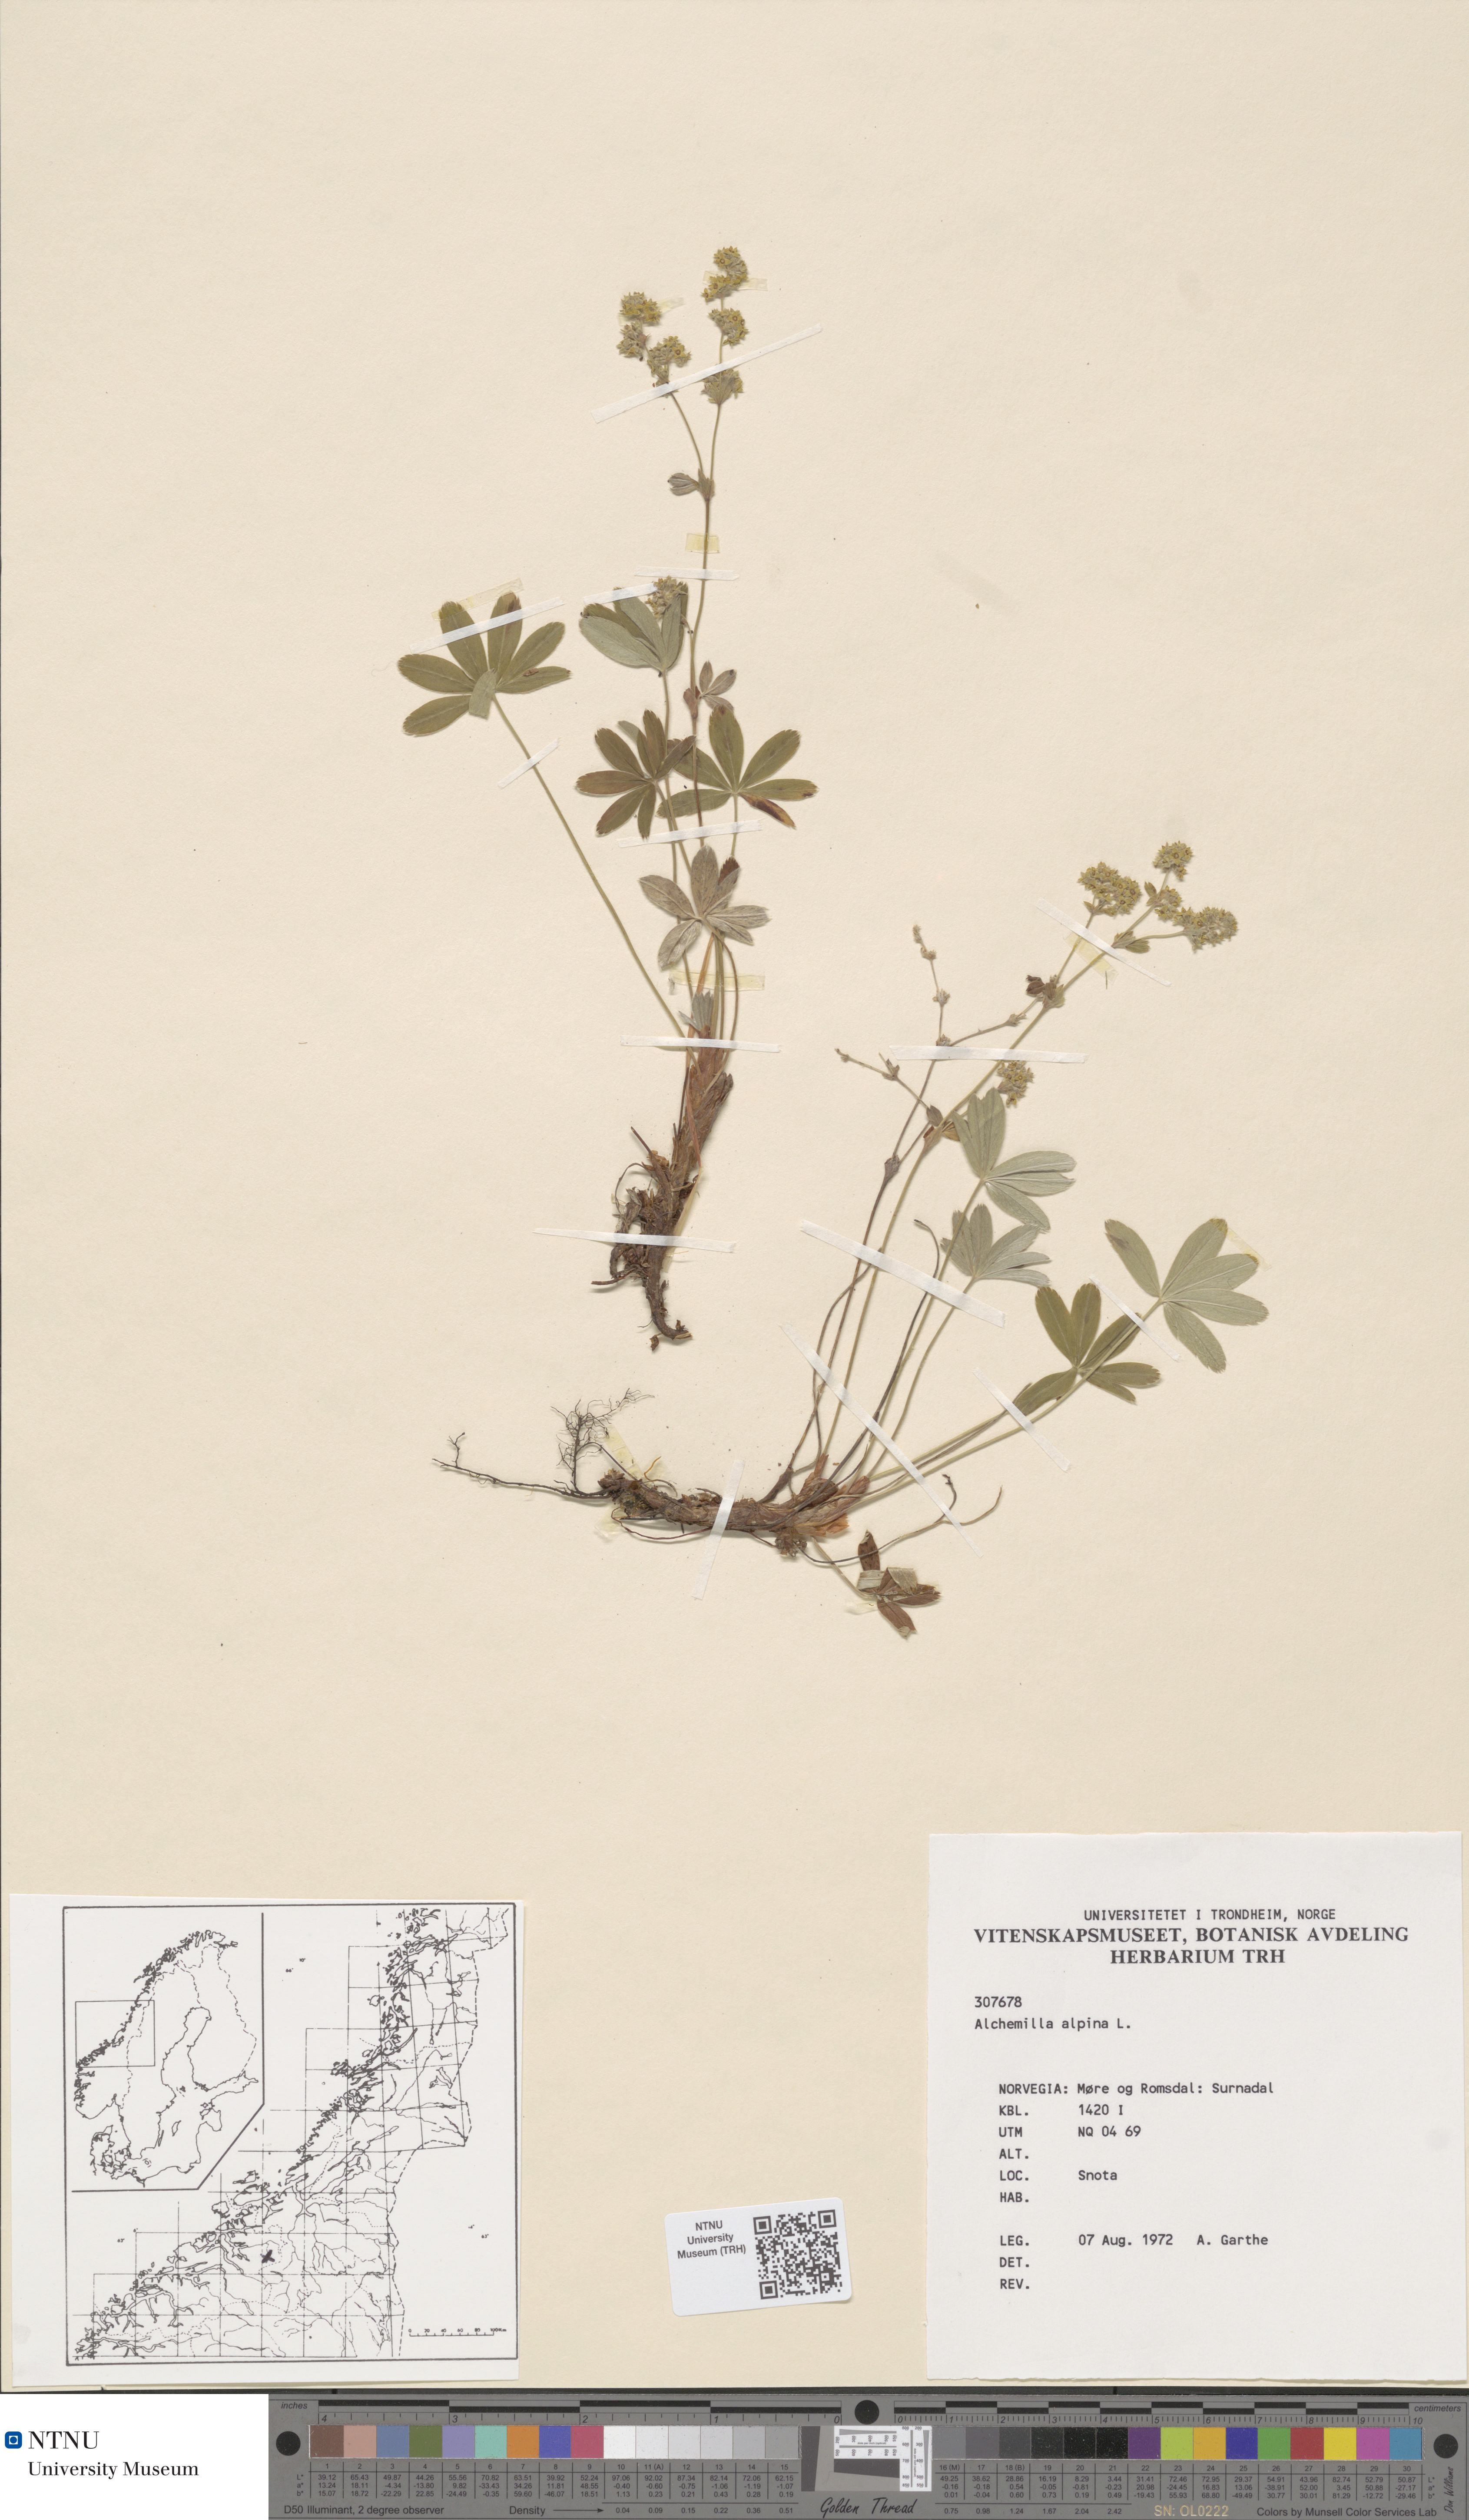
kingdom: Plantae
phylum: Tracheophyta
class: Magnoliopsida
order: Rosales
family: Rosaceae
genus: Alchemilla
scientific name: Alchemilla alpina
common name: Alpine lady's-mantle
